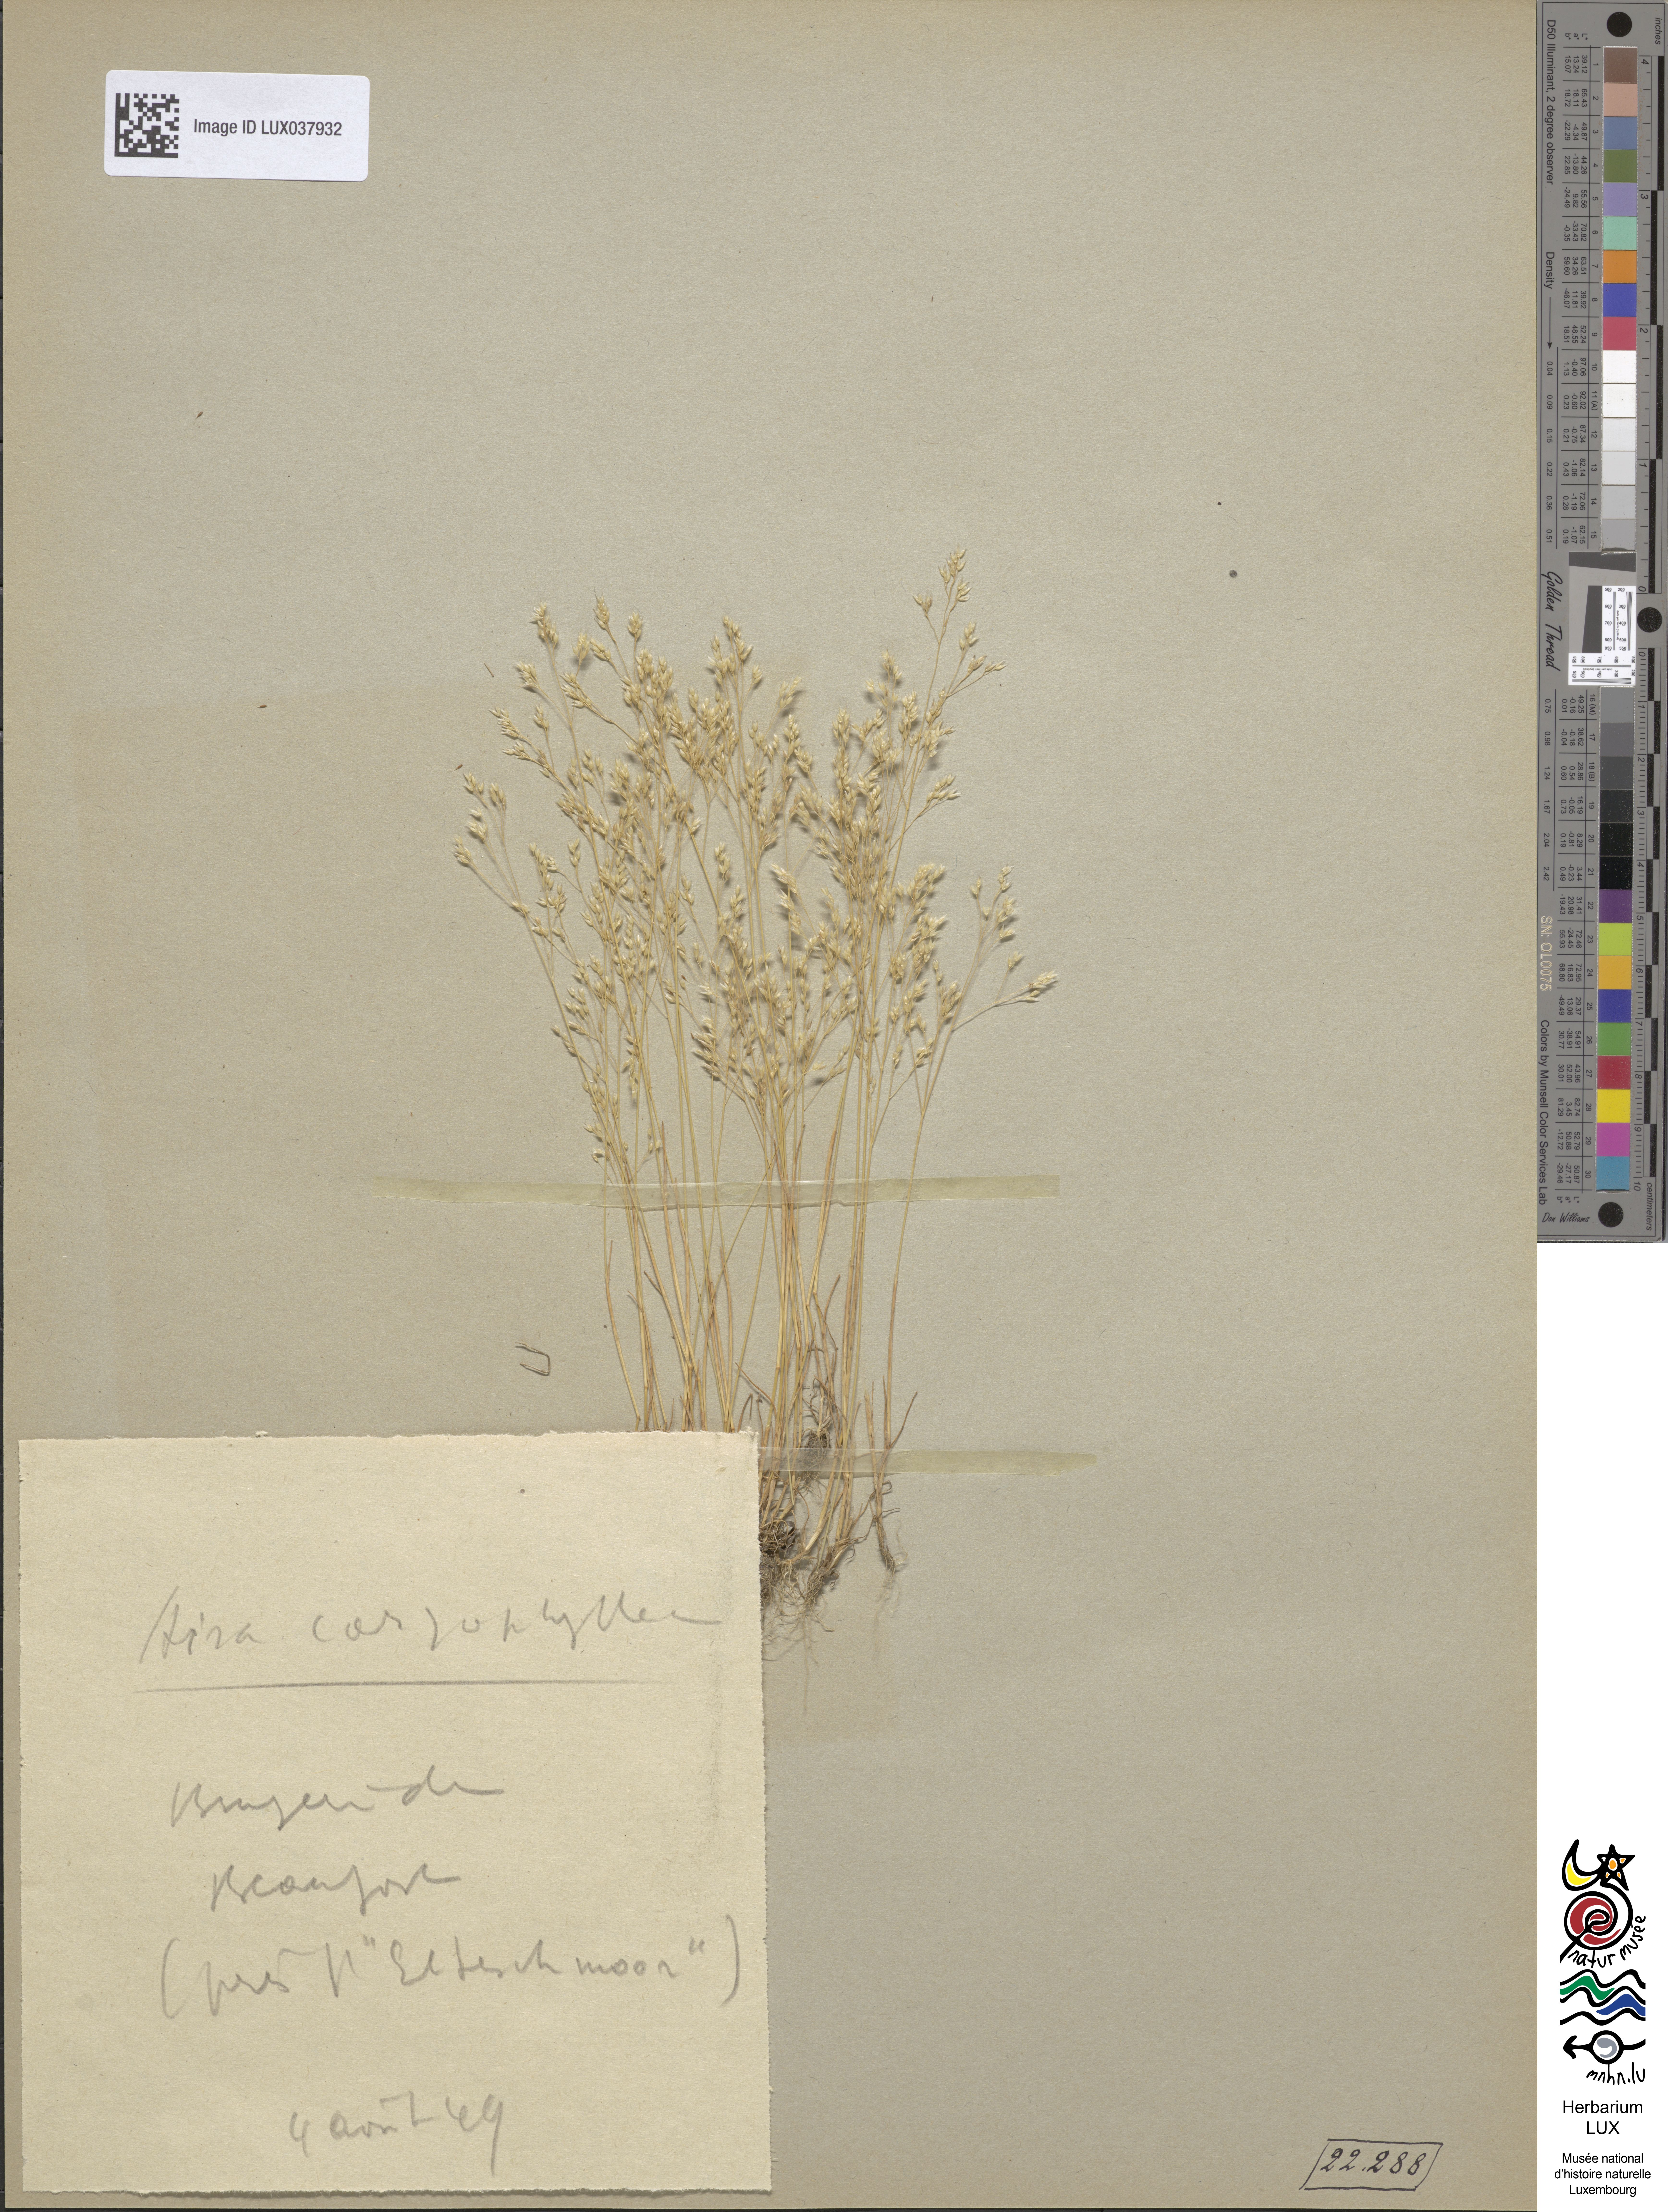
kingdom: Plantae
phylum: Tracheophyta
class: Liliopsida
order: Poales
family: Poaceae
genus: Aira
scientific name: Aira caryophyllea
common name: Silver hairgrass
